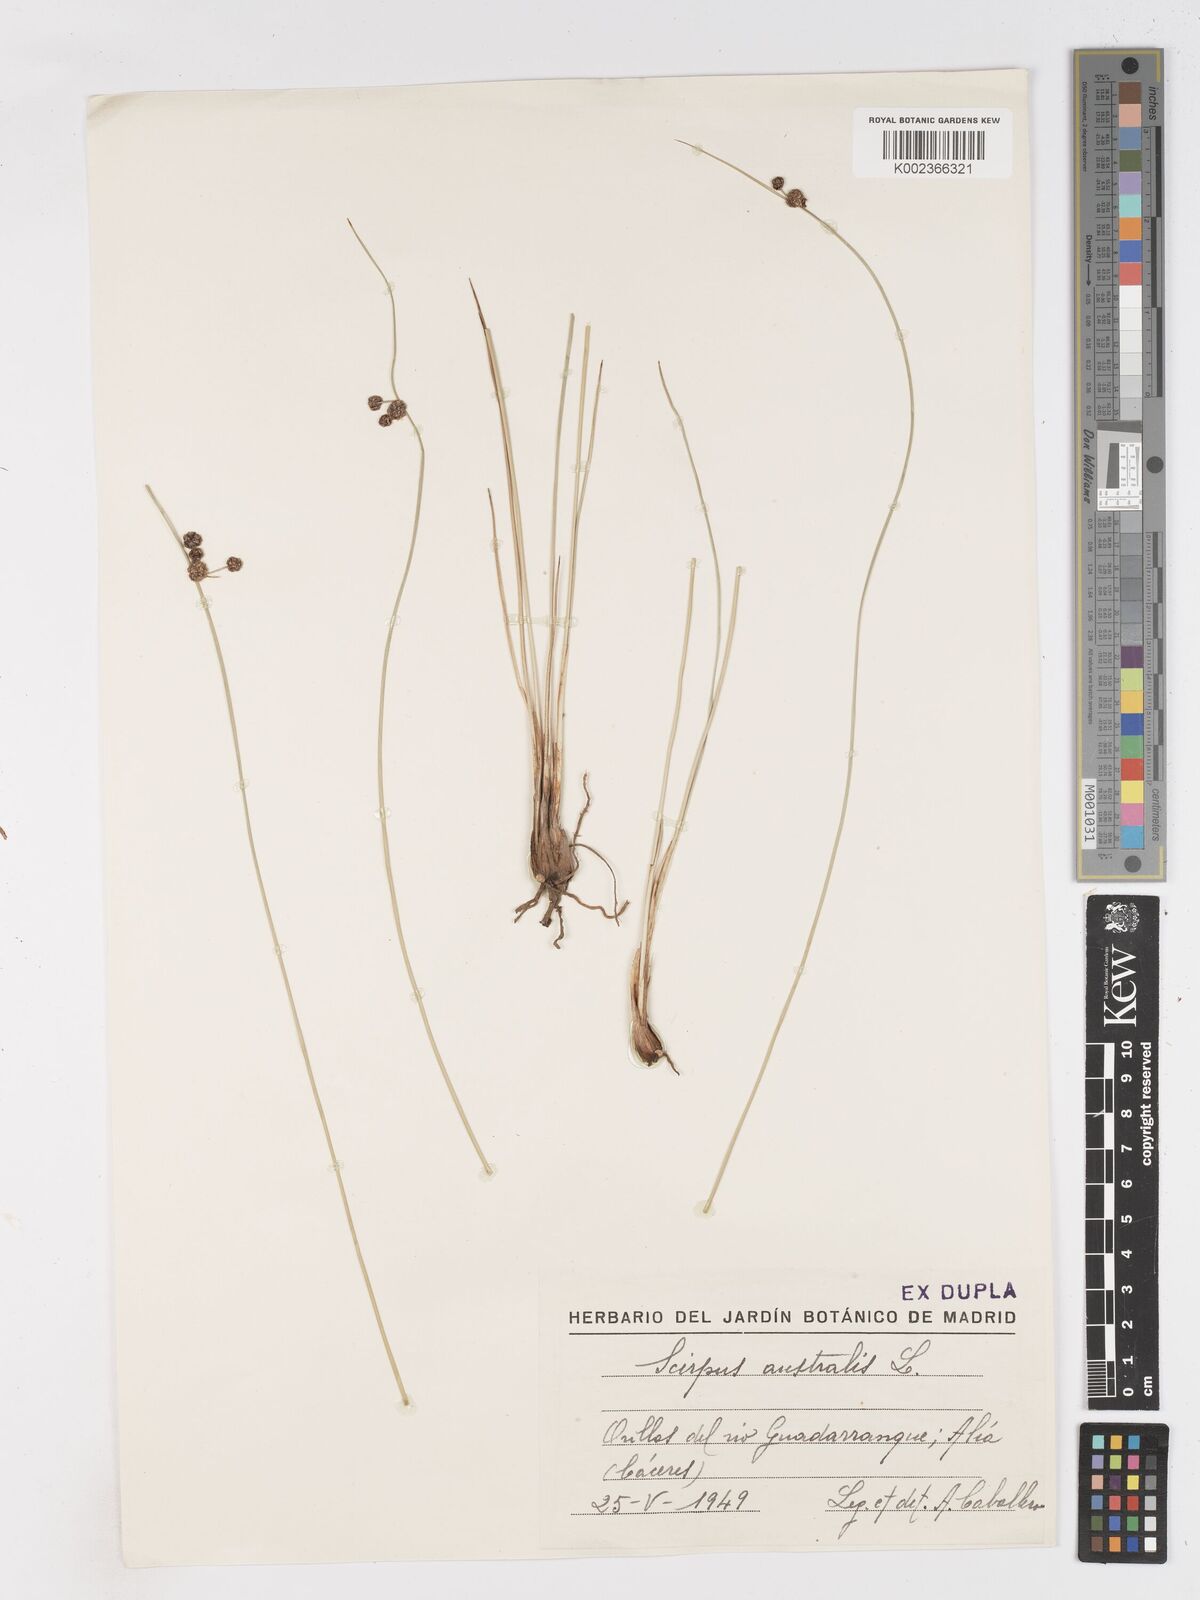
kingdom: Plantae
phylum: Tracheophyta
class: Liliopsida
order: Poales
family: Cyperaceae
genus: Scirpoides
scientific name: Scirpoides
